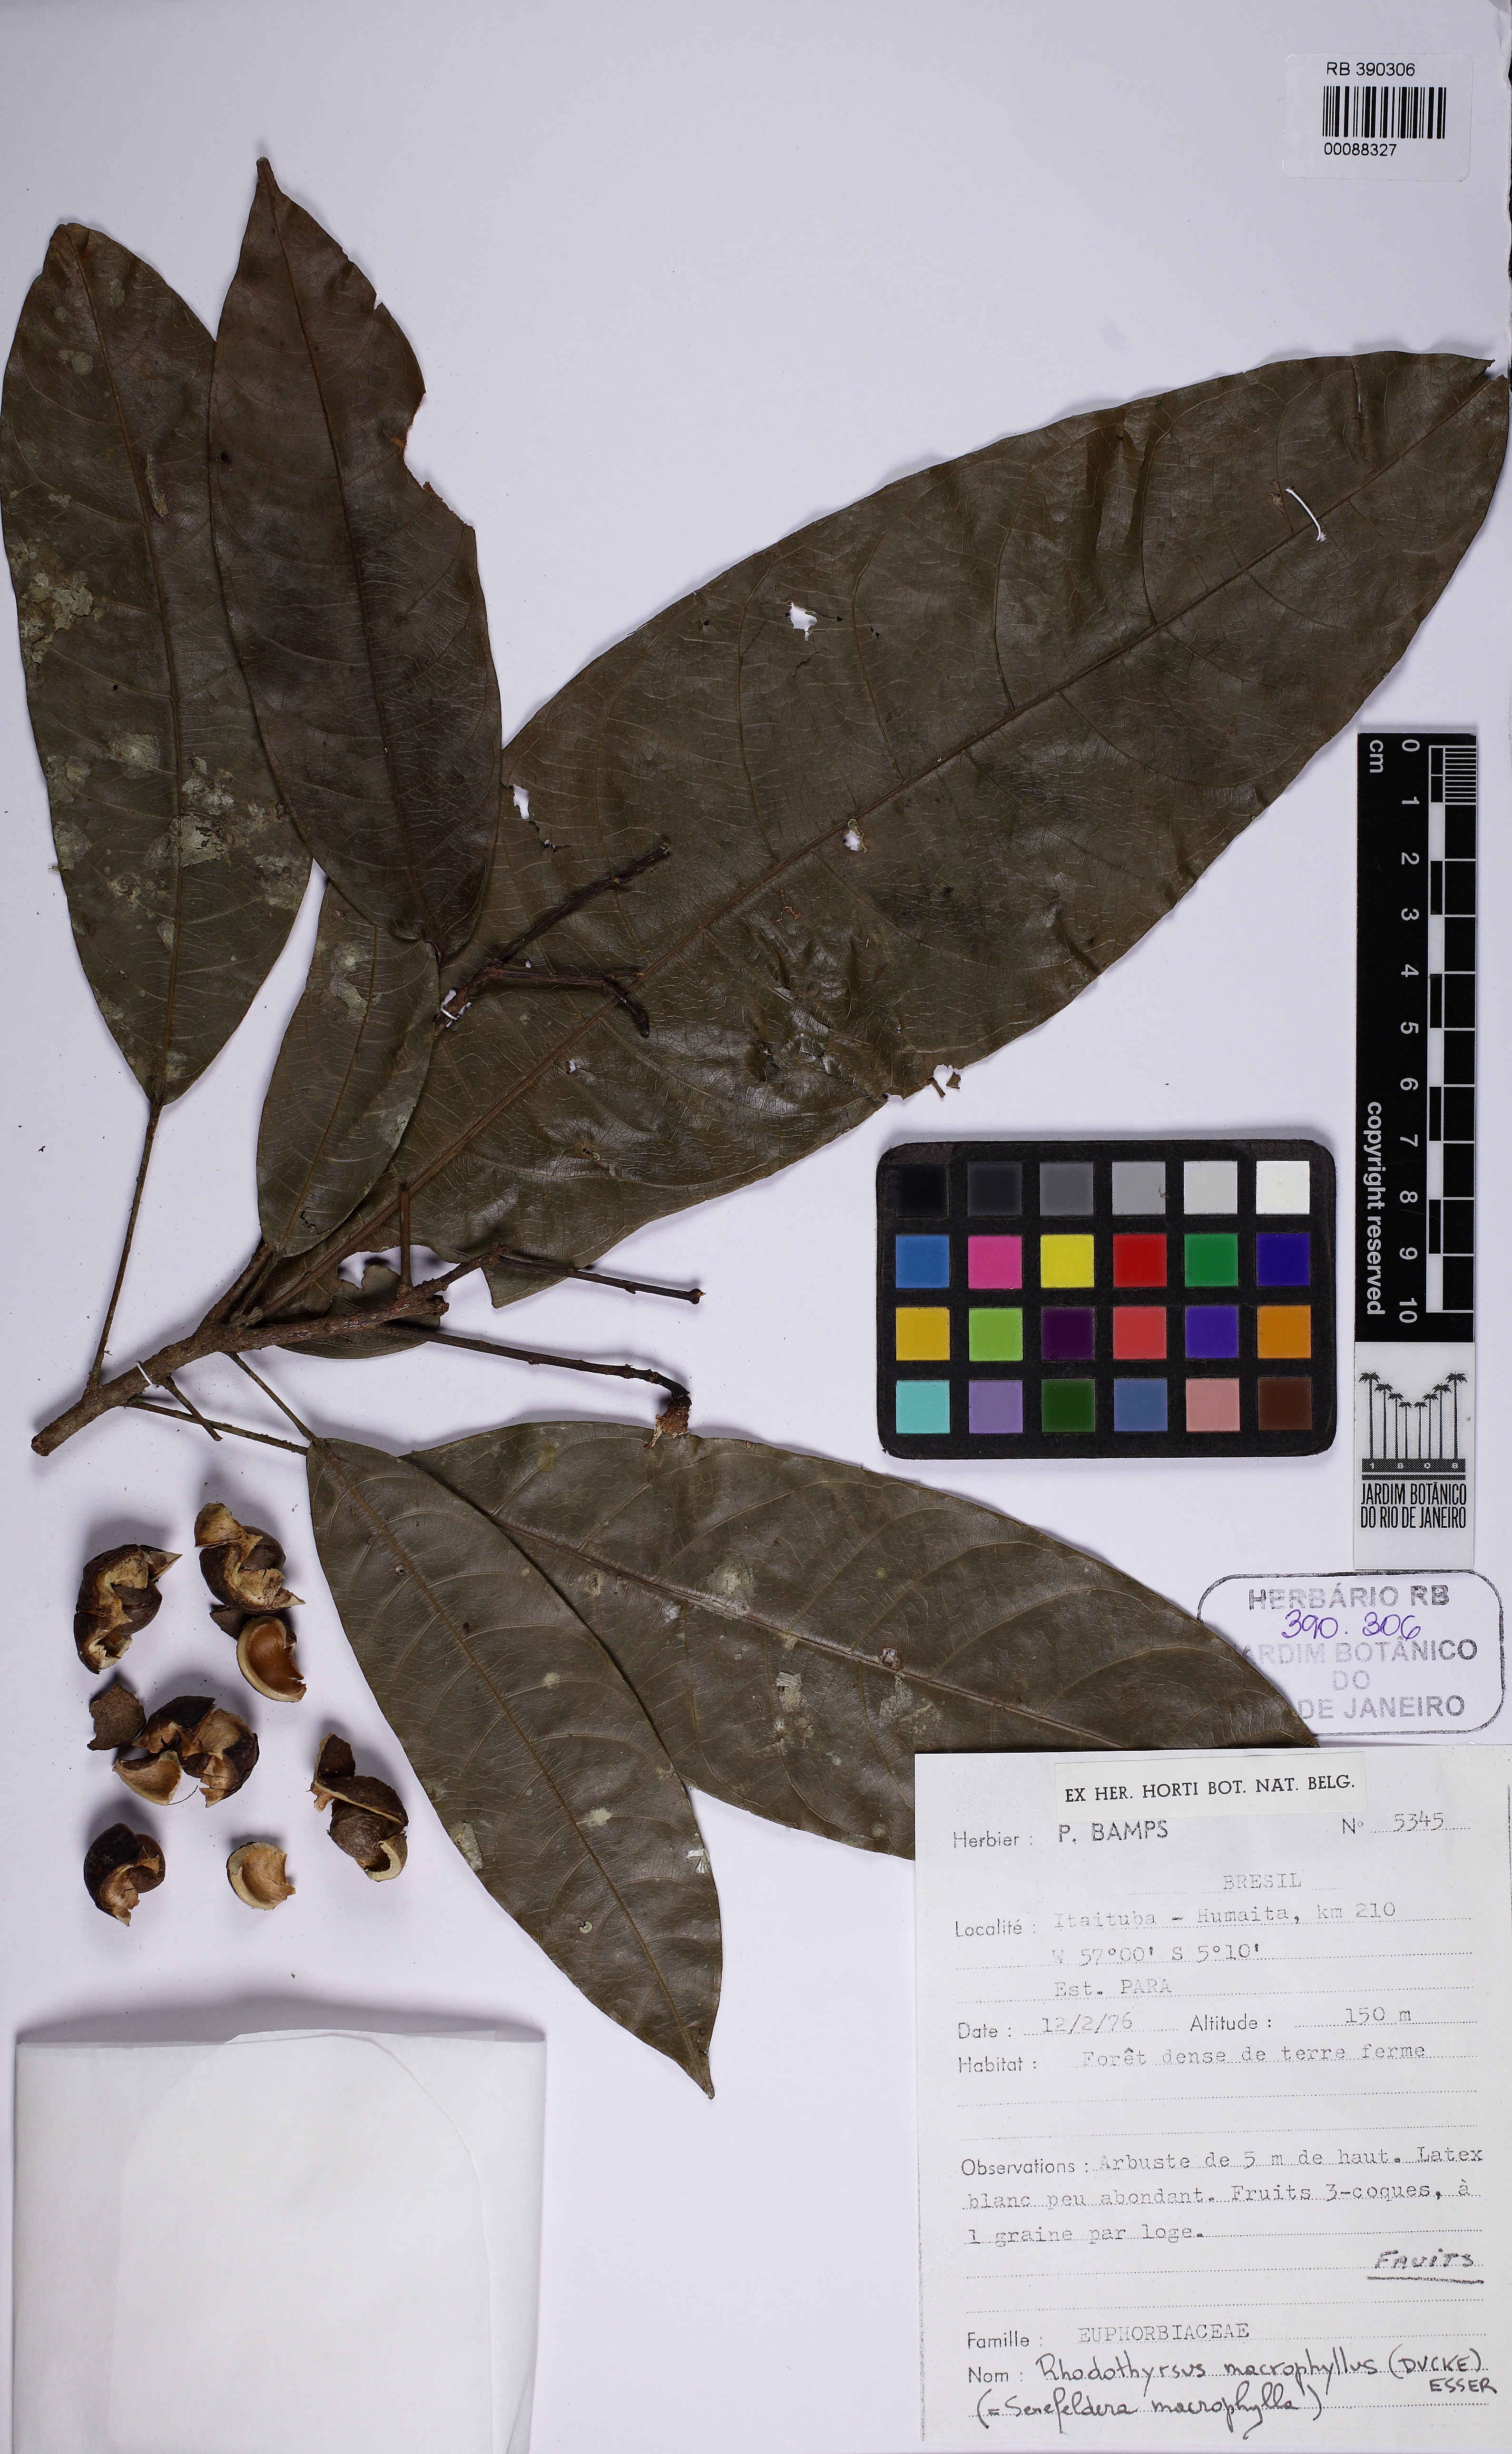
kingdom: Plantae
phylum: Tracheophyta
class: Magnoliopsida
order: Malpighiales
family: Euphorbiaceae
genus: Rhodothyrsus
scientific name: Rhodothyrsus macrophyllus
